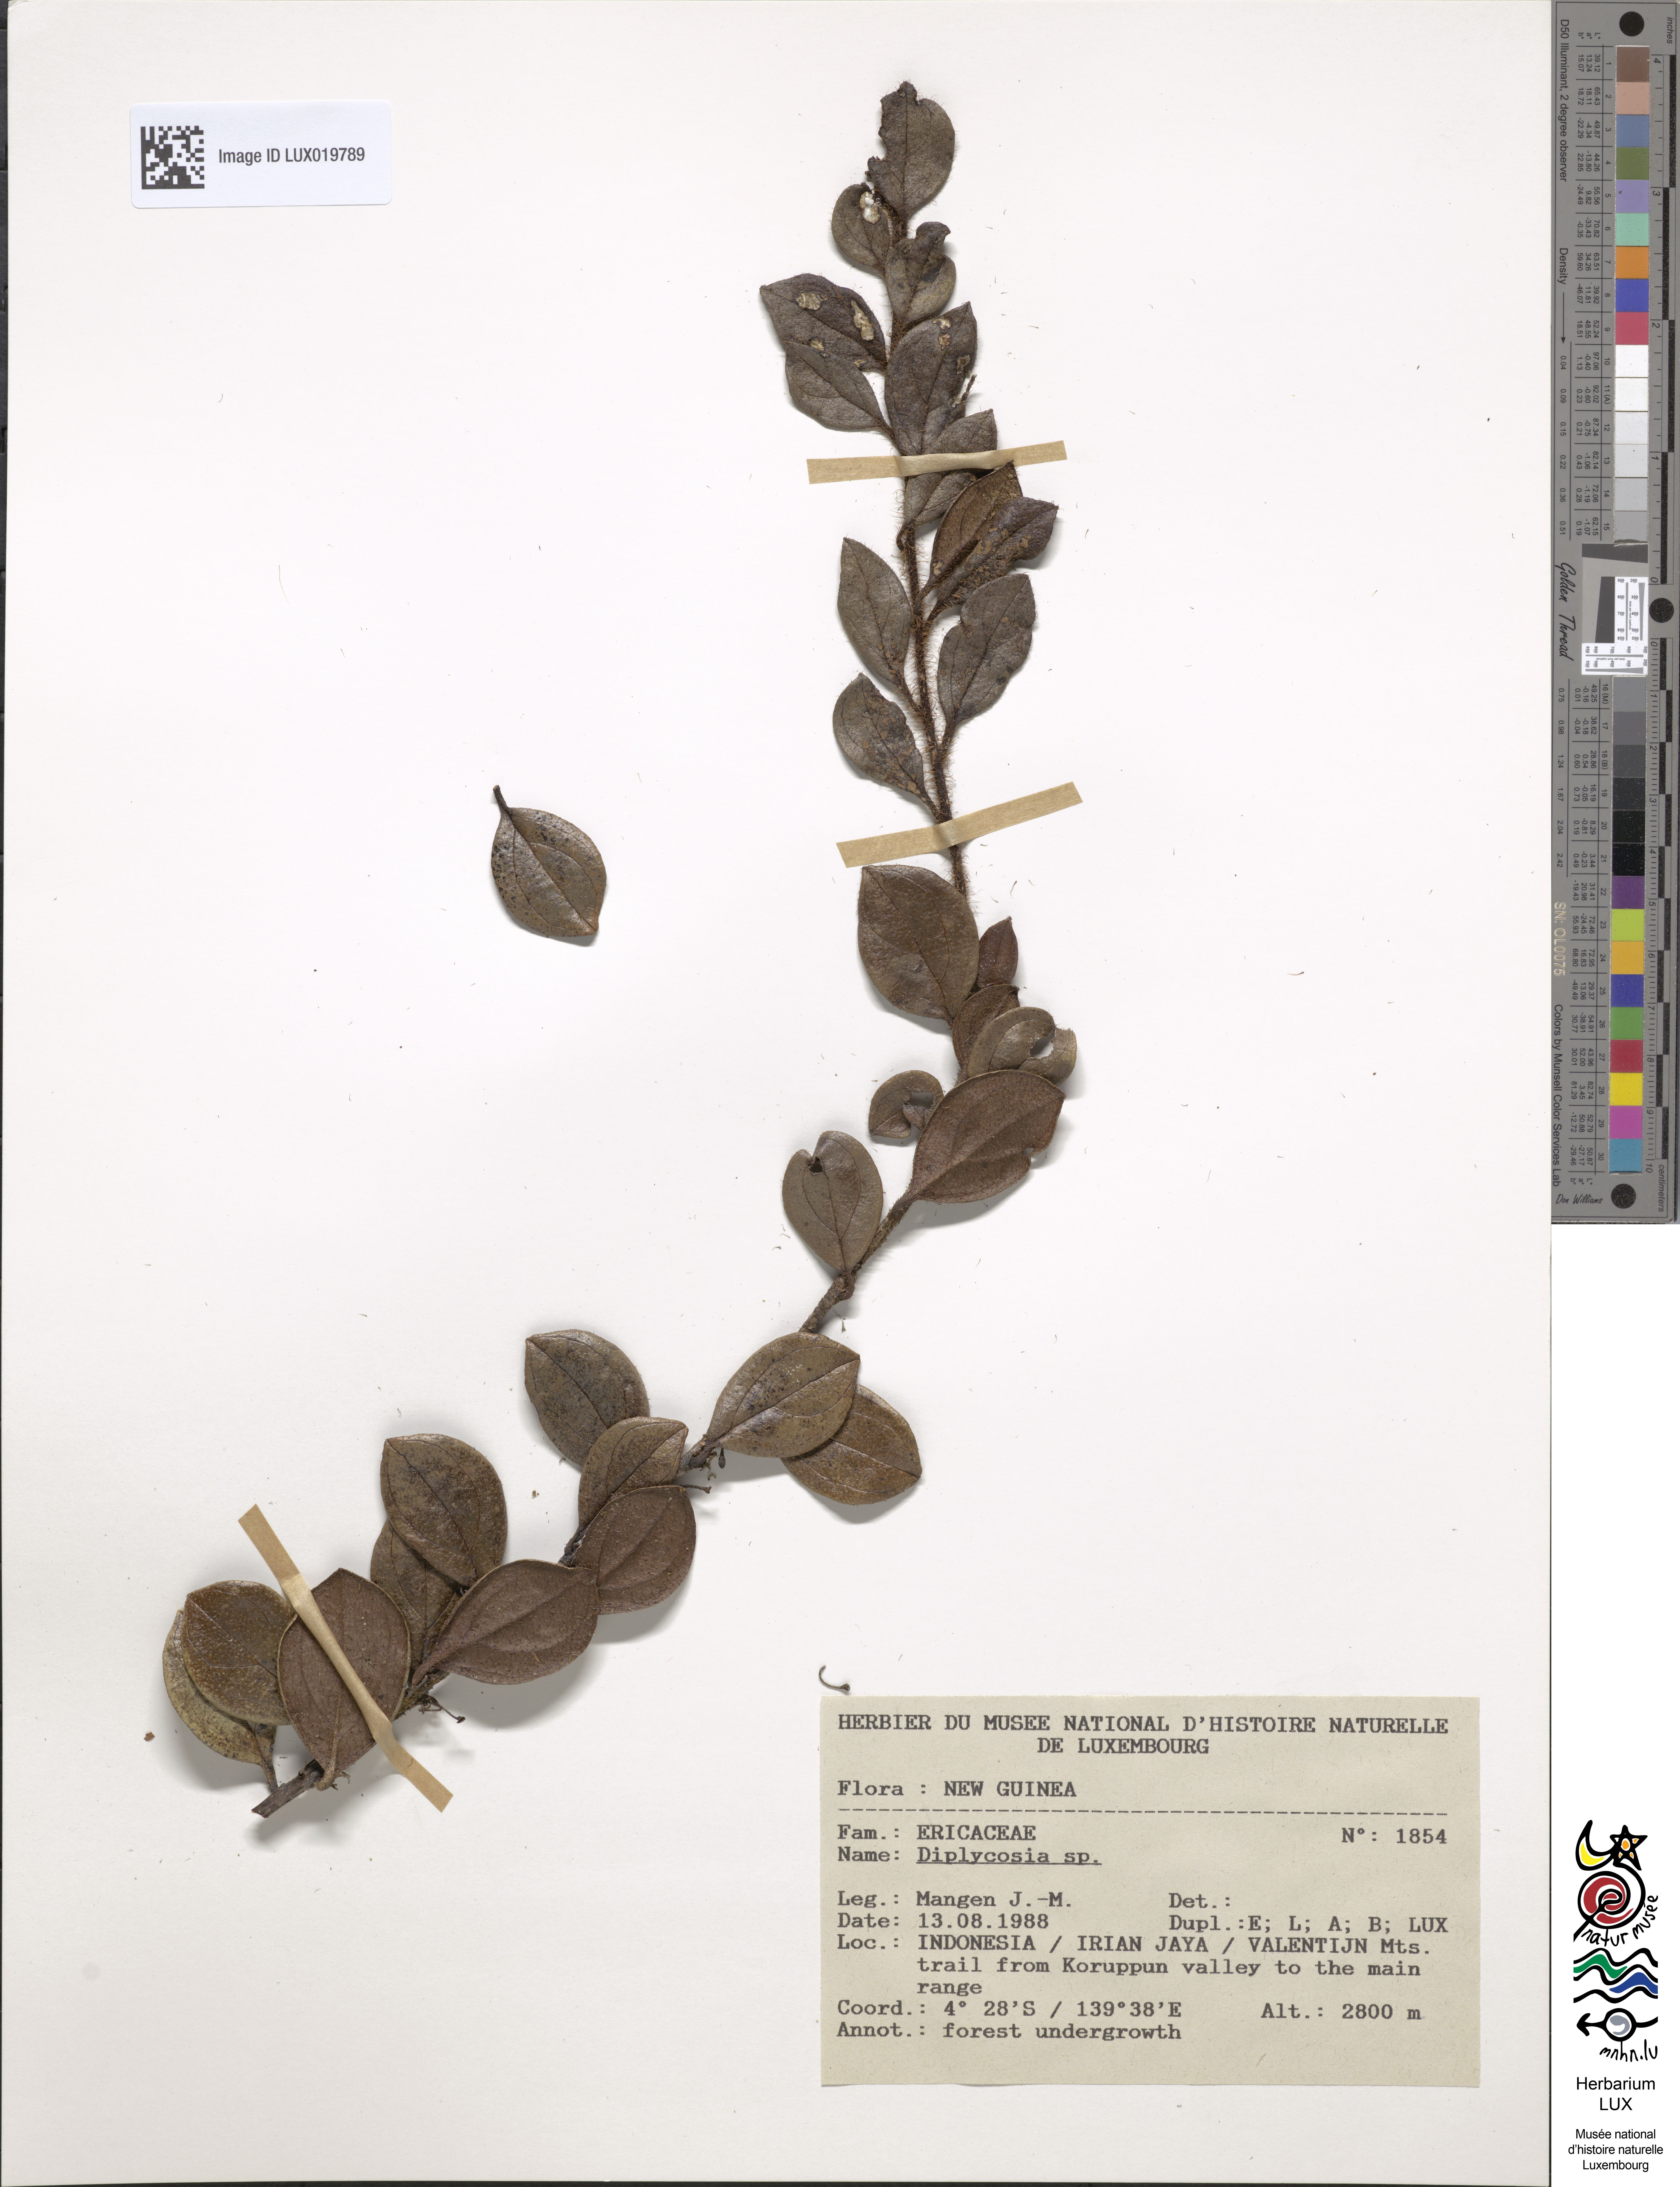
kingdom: Plantae
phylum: Tracheophyta
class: Magnoliopsida
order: Ericales
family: Ericaceae
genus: Gaultheria
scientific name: Gaultheria
